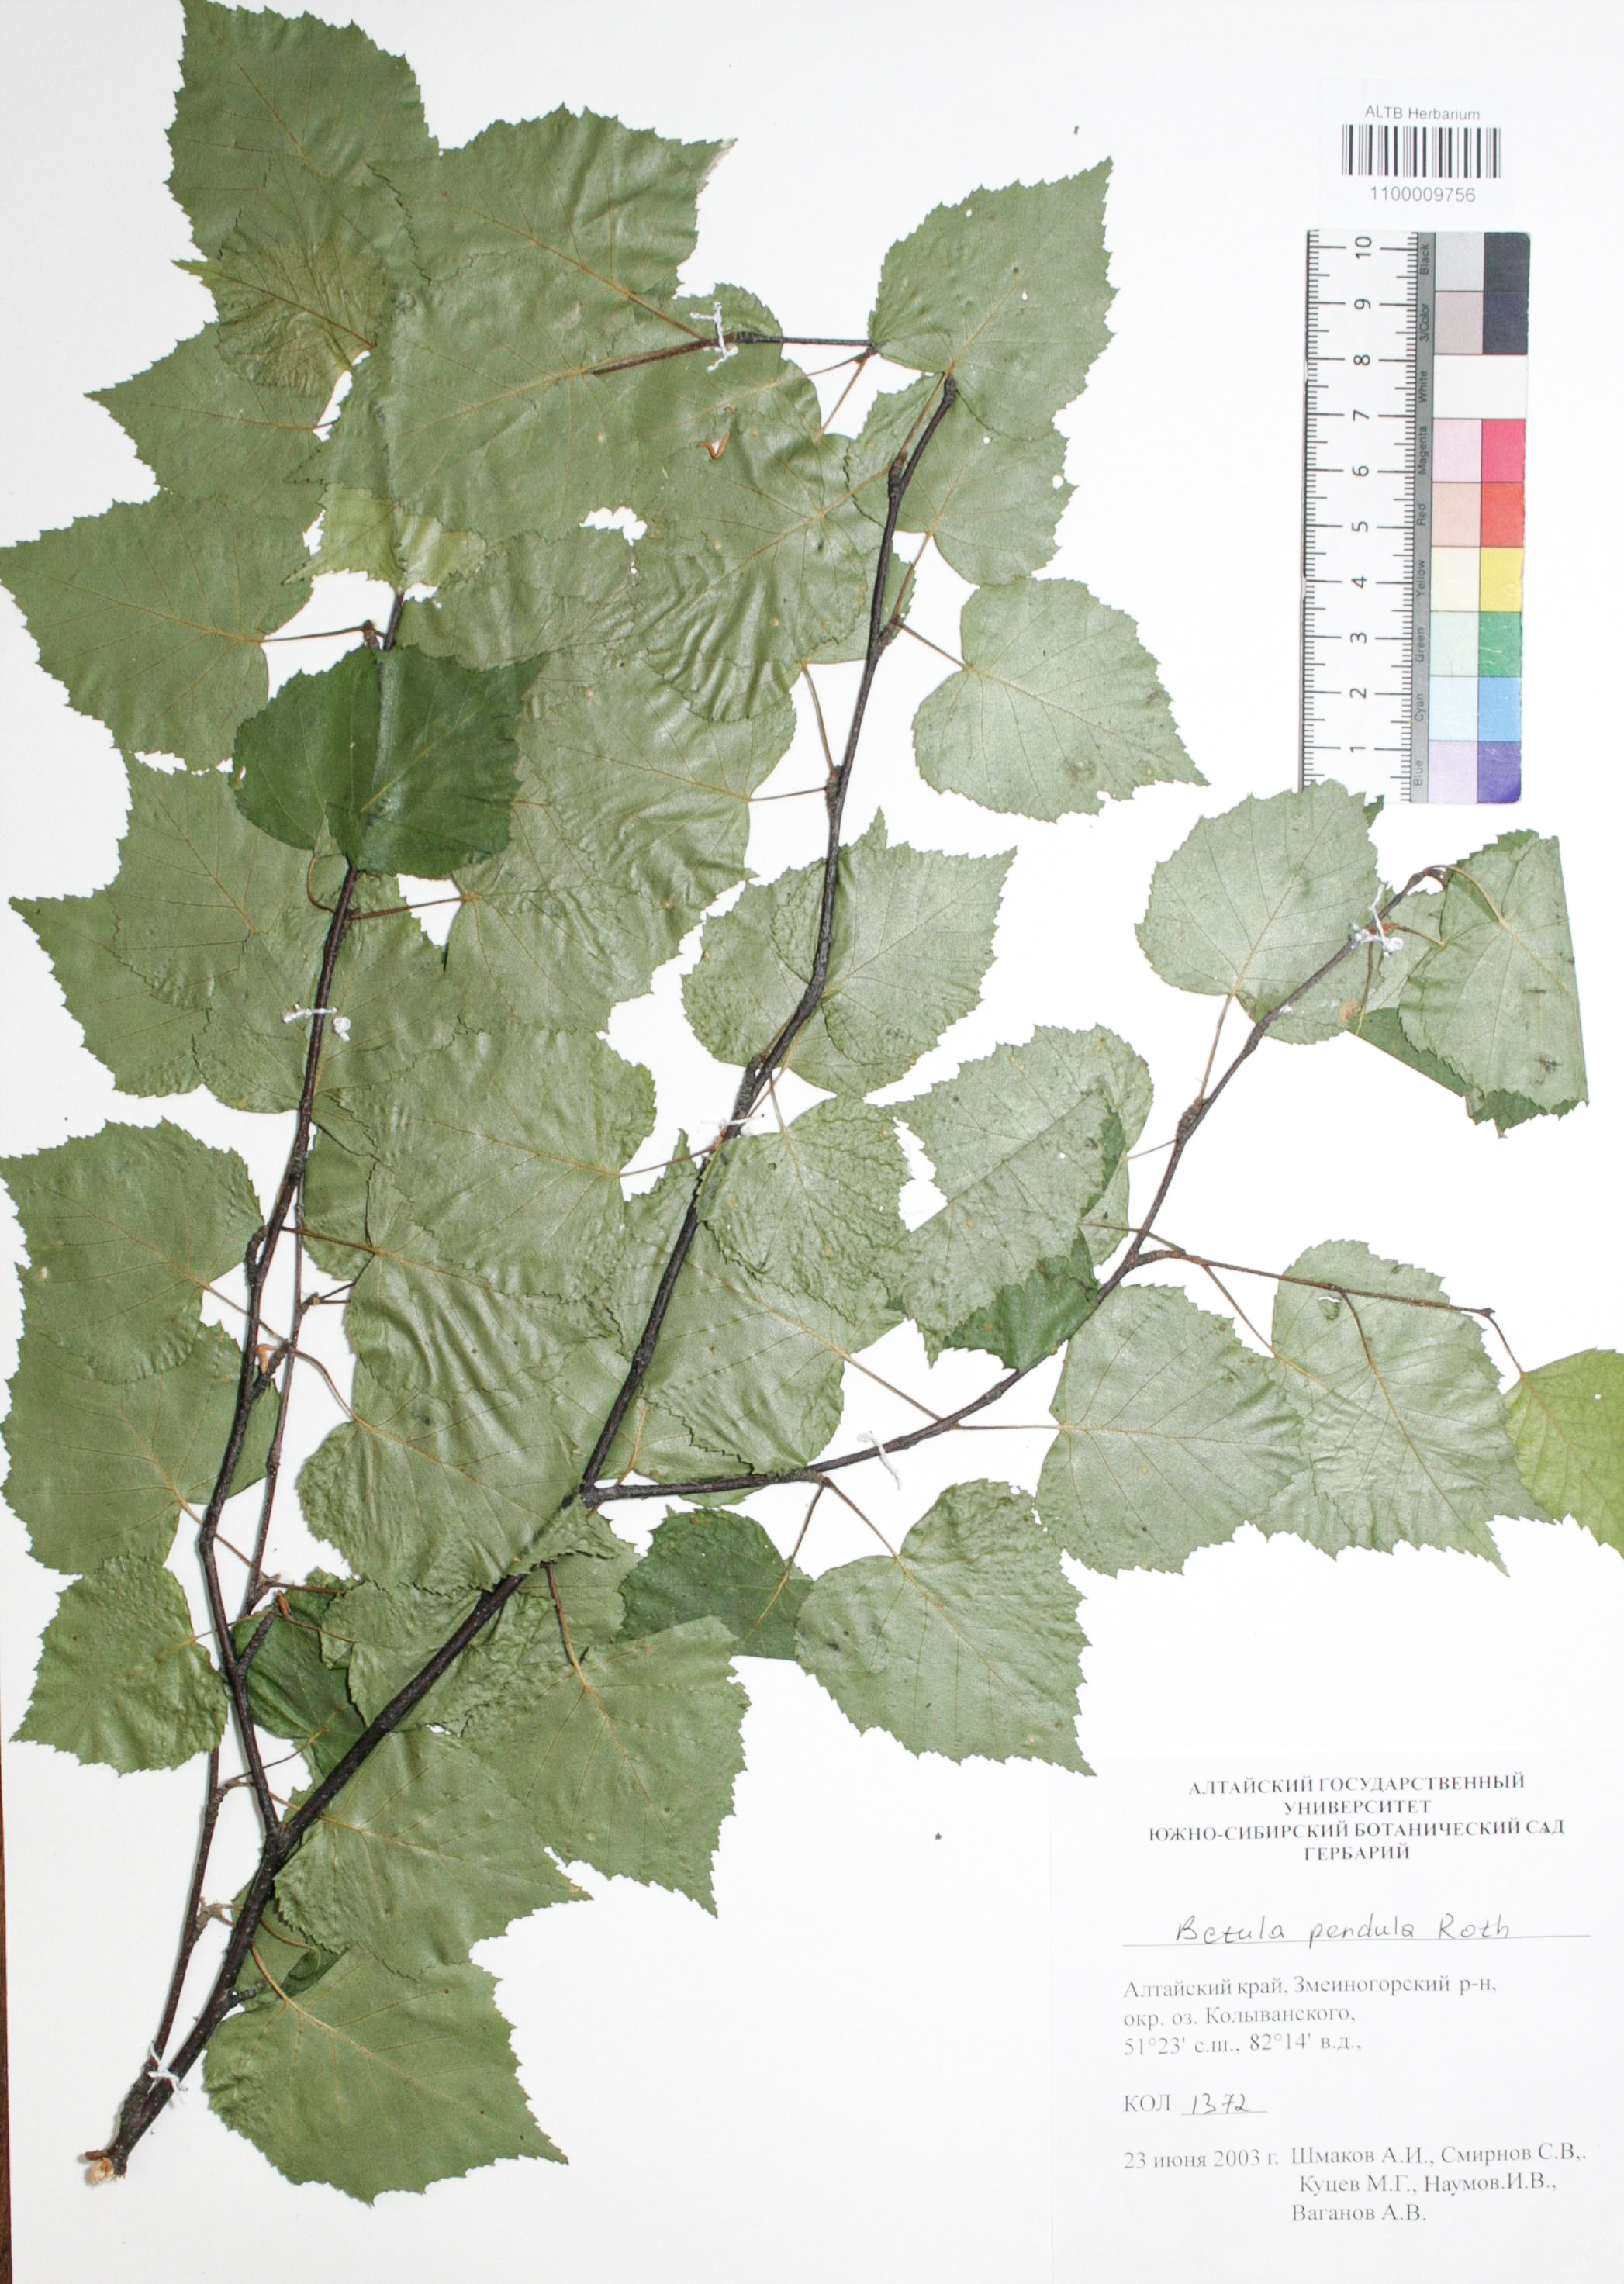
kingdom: Plantae
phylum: Tracheophyta
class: Magnoliopsida
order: Fagales
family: Betulaceae
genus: Betula
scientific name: Betula pendula
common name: Silver birch
